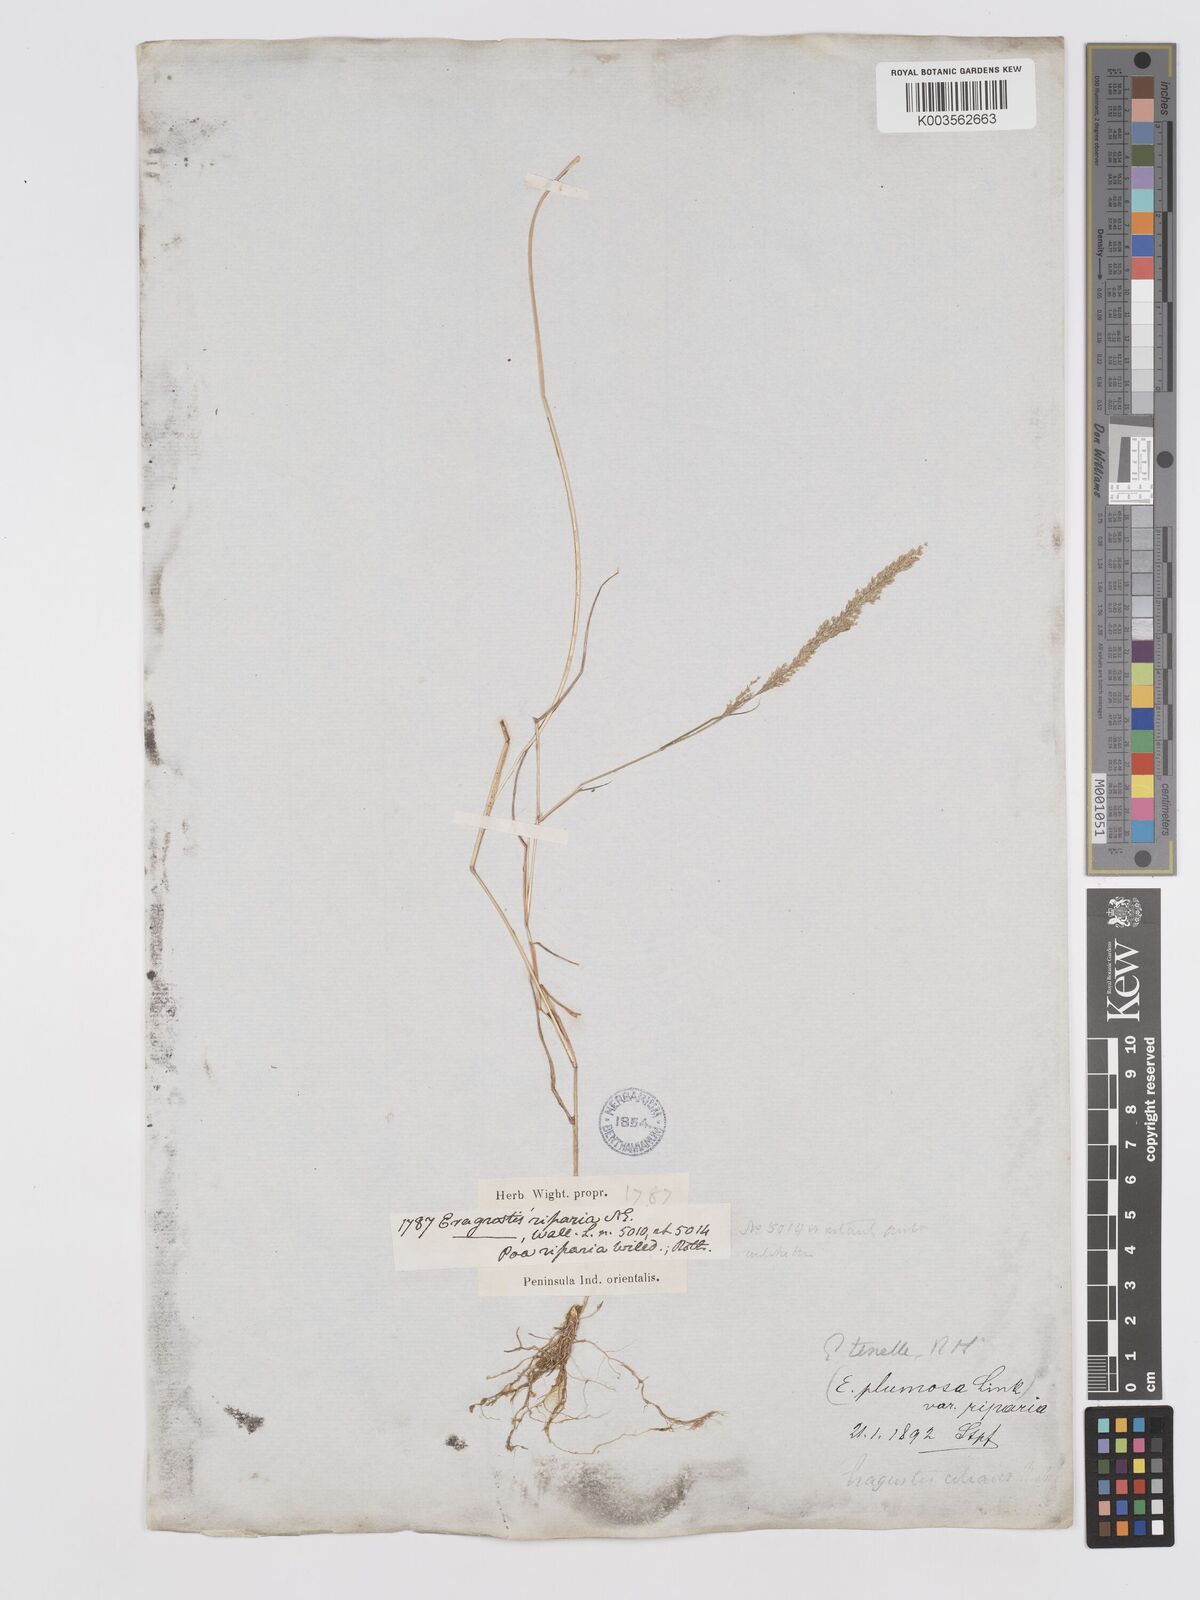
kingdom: Plantae
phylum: Tracheophyta
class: Liliopsida
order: Poales
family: Poaceae
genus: Eragrostis
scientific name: Eragrostis tenella
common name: Japanese lovegrass
